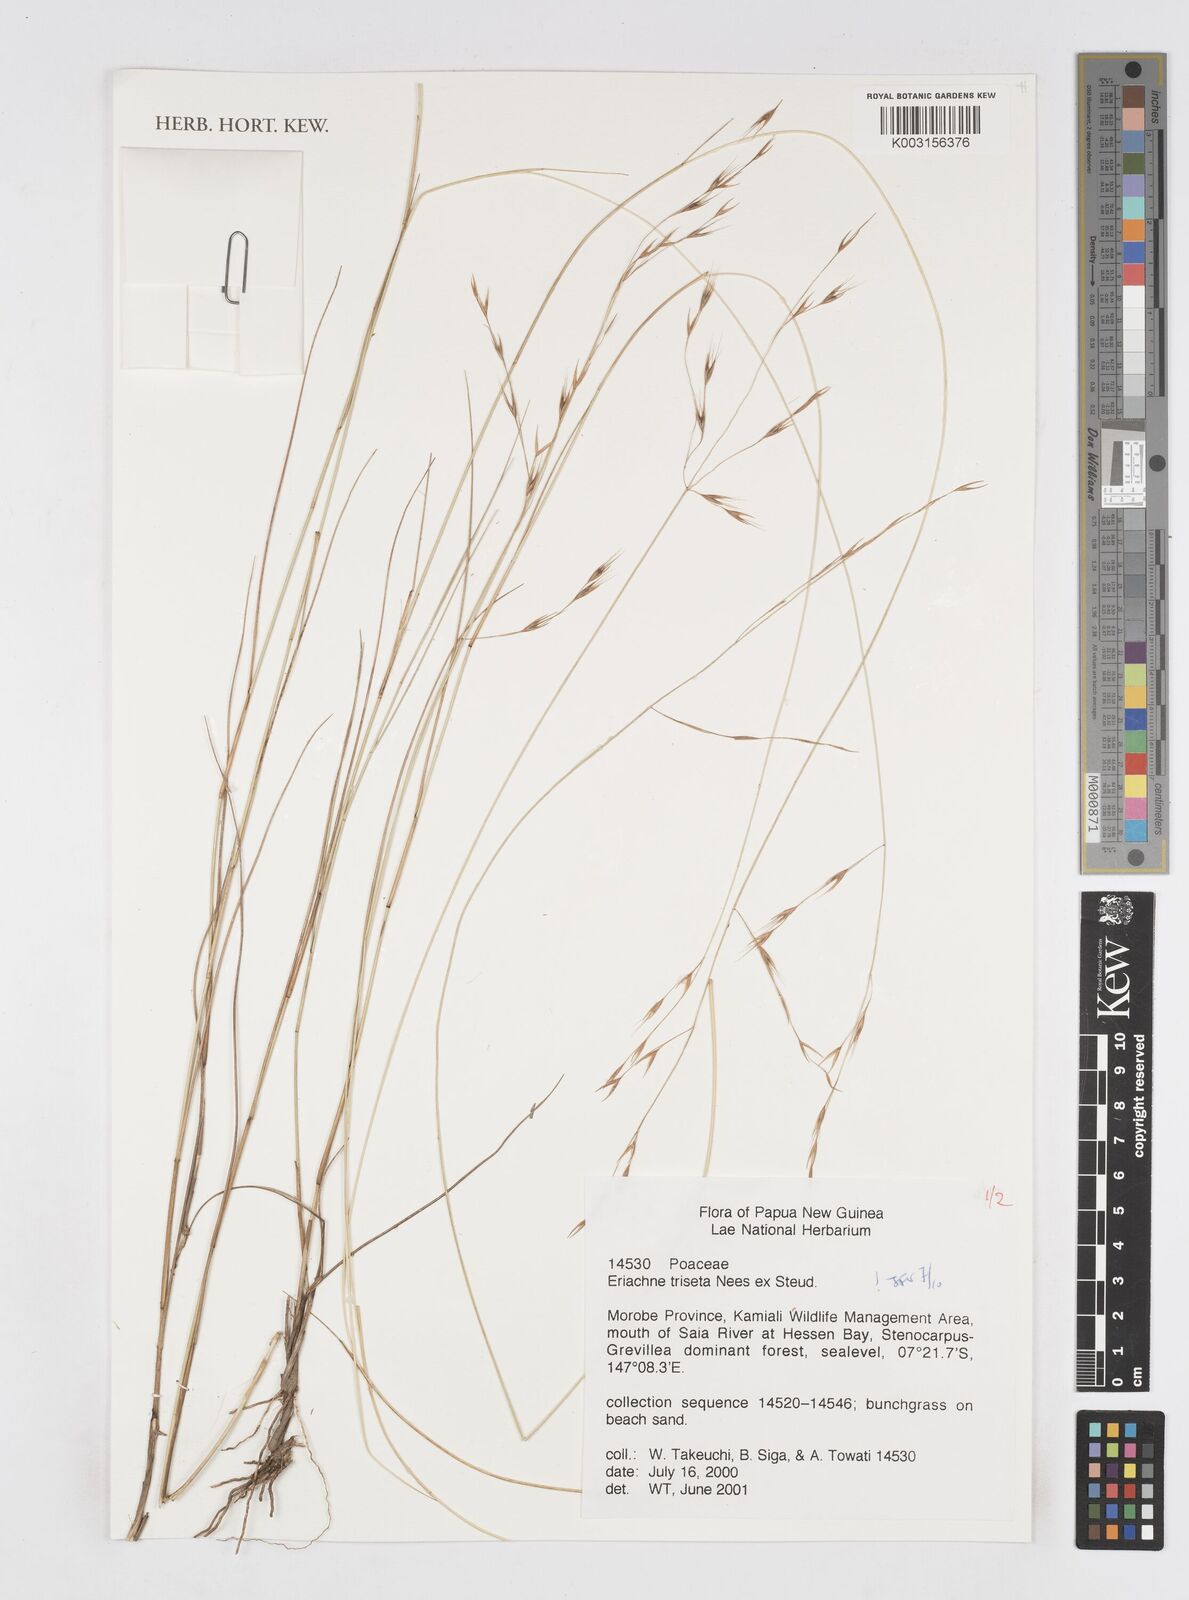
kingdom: Plantae
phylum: Tracheophyta
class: Liliopsida
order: Poales
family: Poaceae
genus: Eriachne
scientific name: Eriachne triseta
